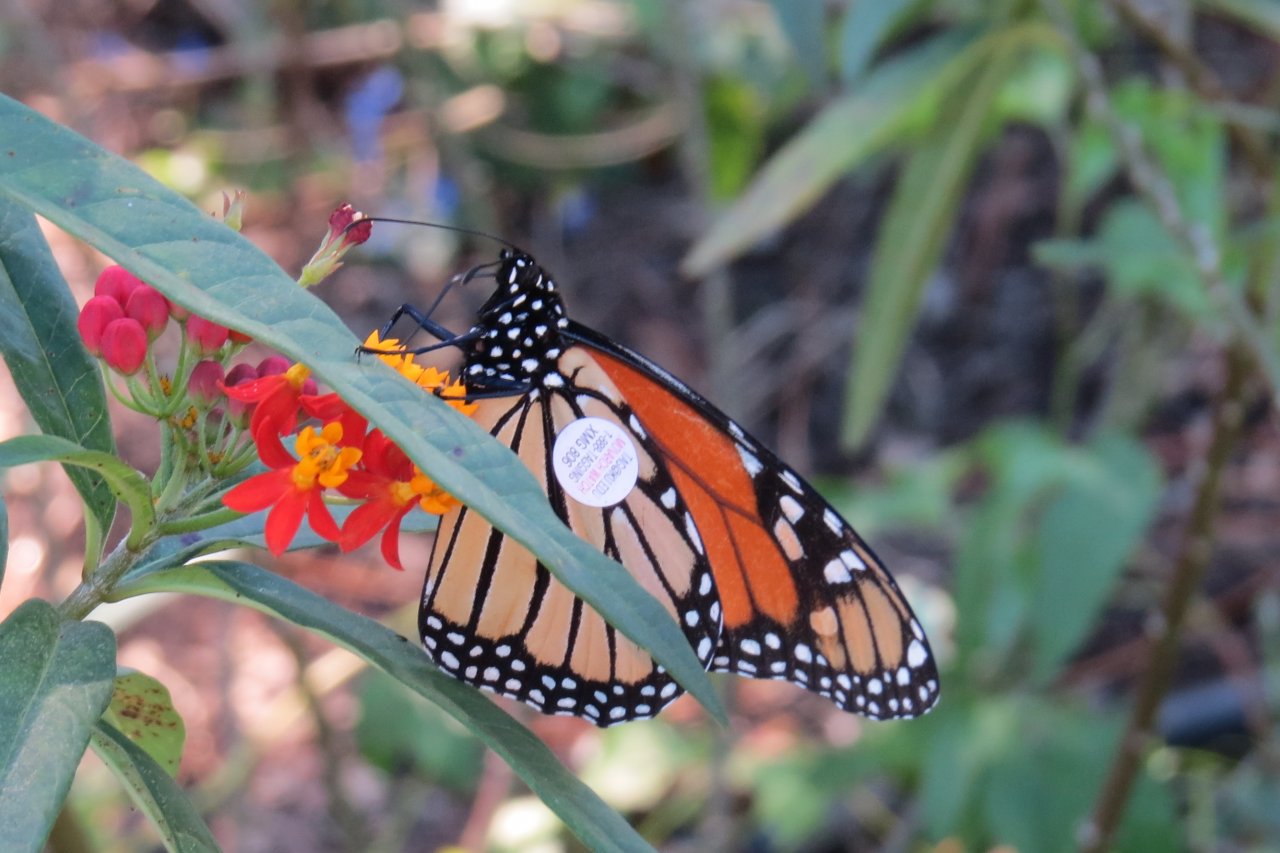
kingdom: Animalia
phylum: Arthropoda
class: Insecta
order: Lepidoptera
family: Nymphalidae
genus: Danaus
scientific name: Danaus plexippus
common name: Monarch
